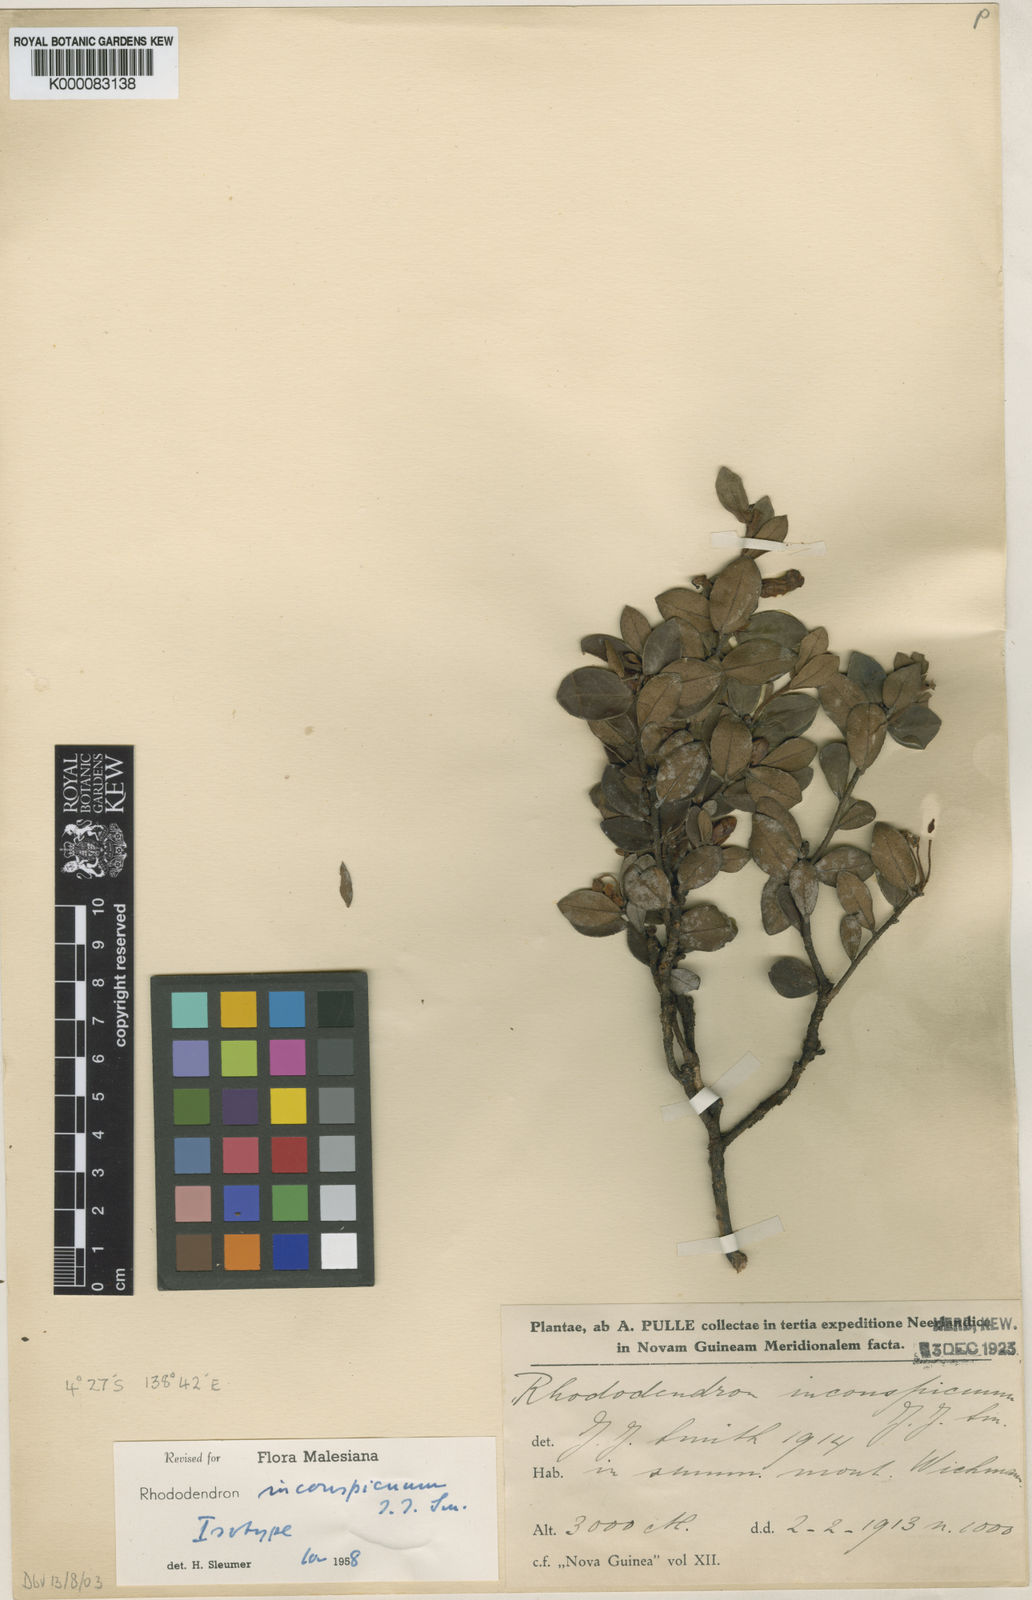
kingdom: Plantae
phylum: Tracheophyta
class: Magnoliopsida
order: Ericales
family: Ericaceae
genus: Rhododendron
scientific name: Rhododendron inconspicuum
